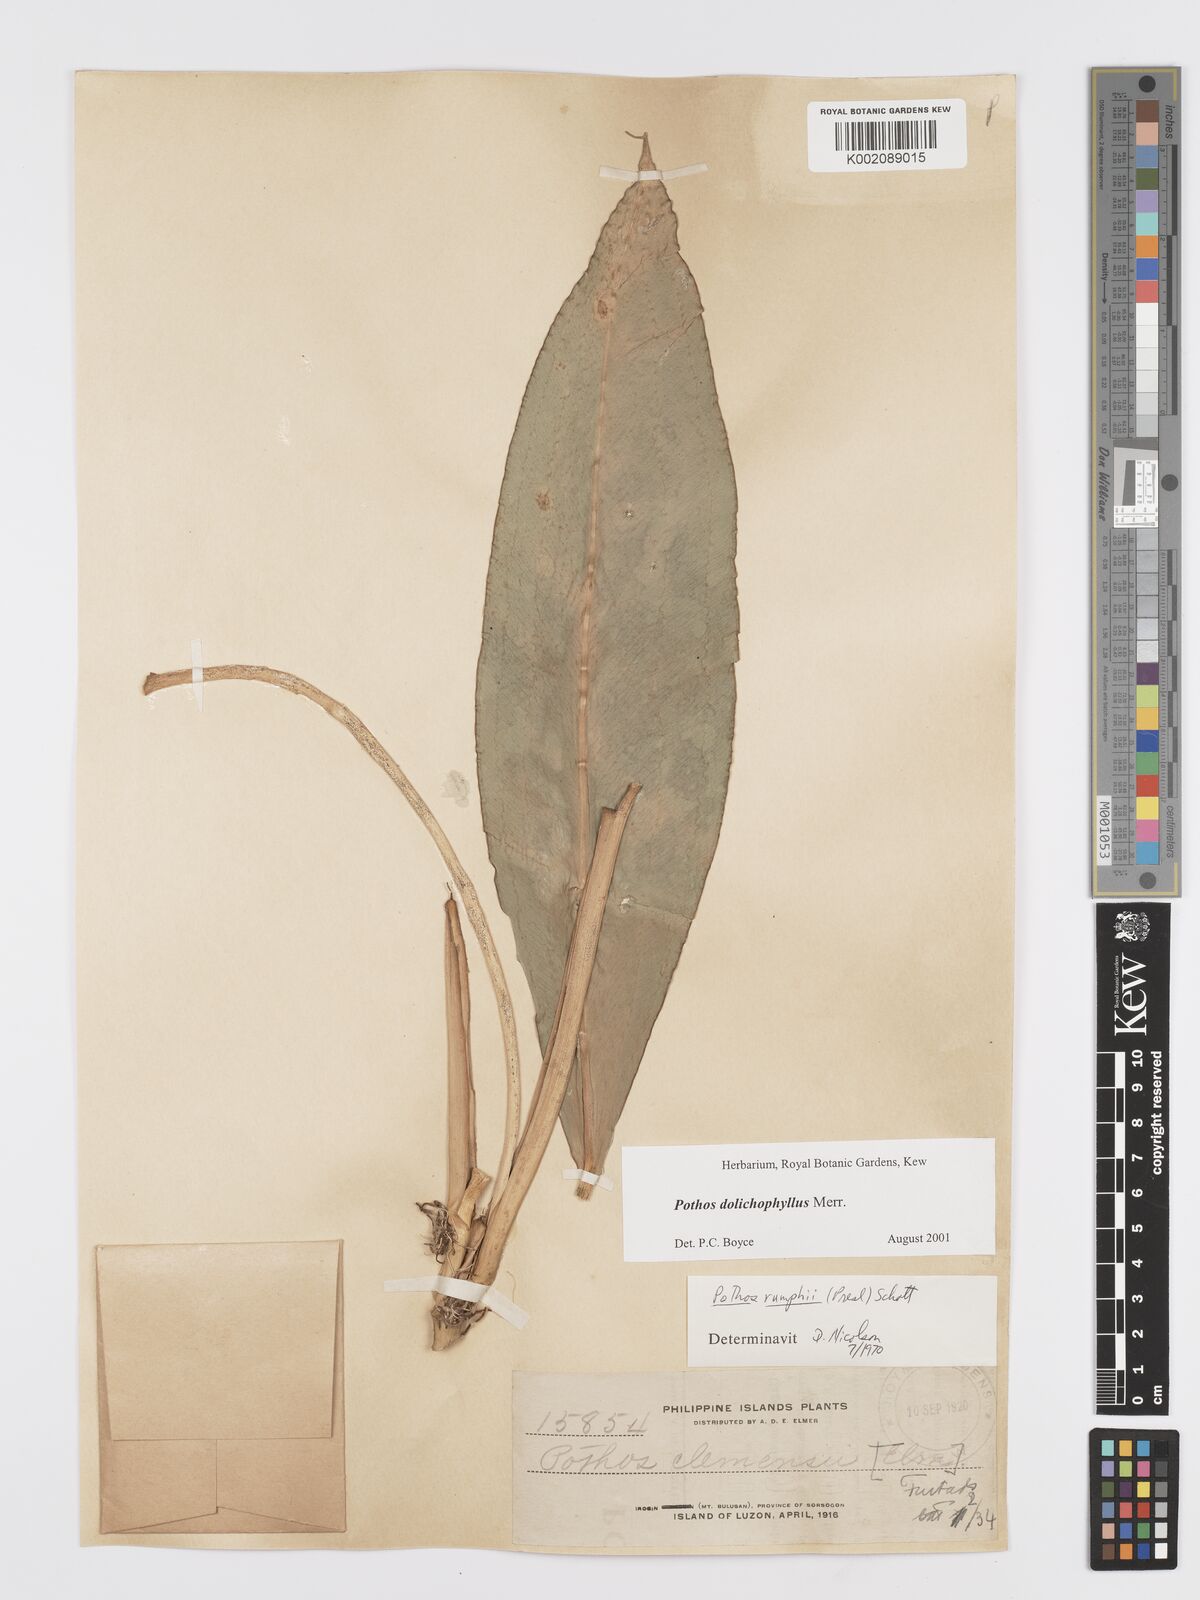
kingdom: Plantae
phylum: Tracheophyta
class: Liliopsida
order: Alismatales
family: Araceae
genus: Pothos
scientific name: Pothos dolichophyllus
